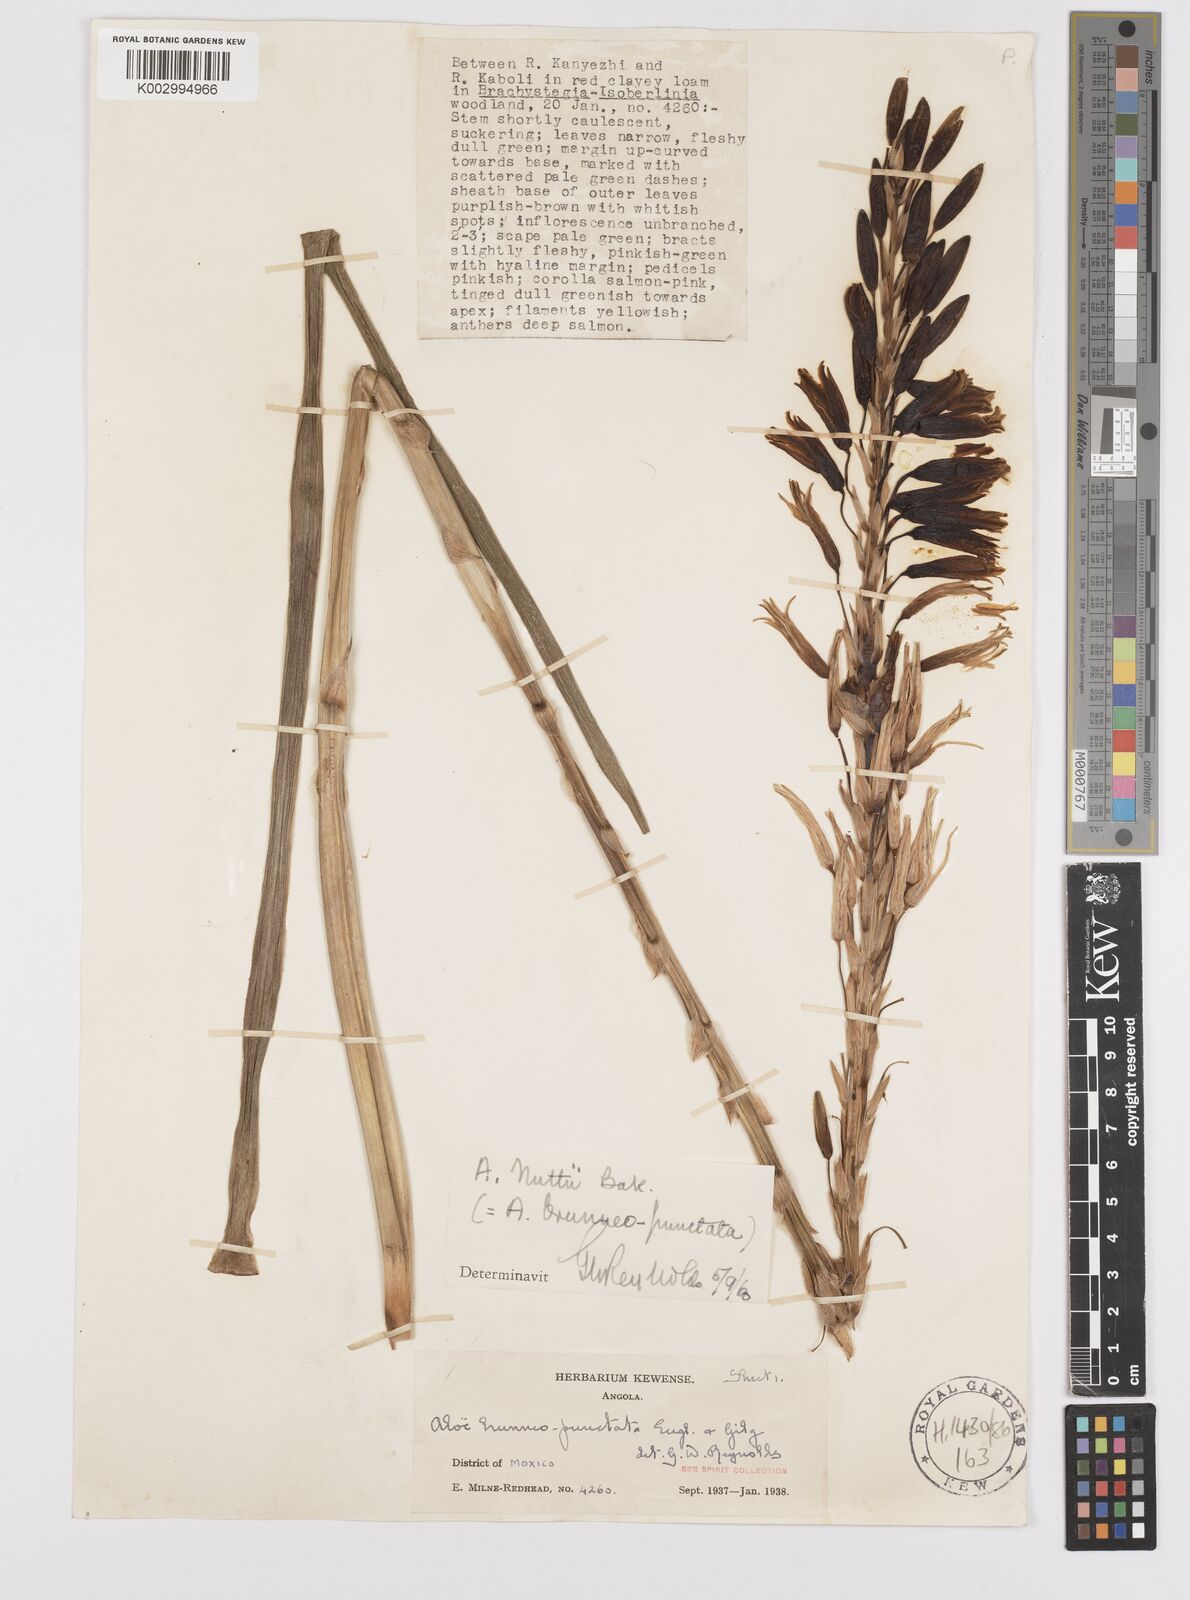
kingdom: Plantae
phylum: Tracheophyta
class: Liliopsida
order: Asparagales
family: Asphodelaceae
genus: Aloe
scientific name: Aloe nuttii
